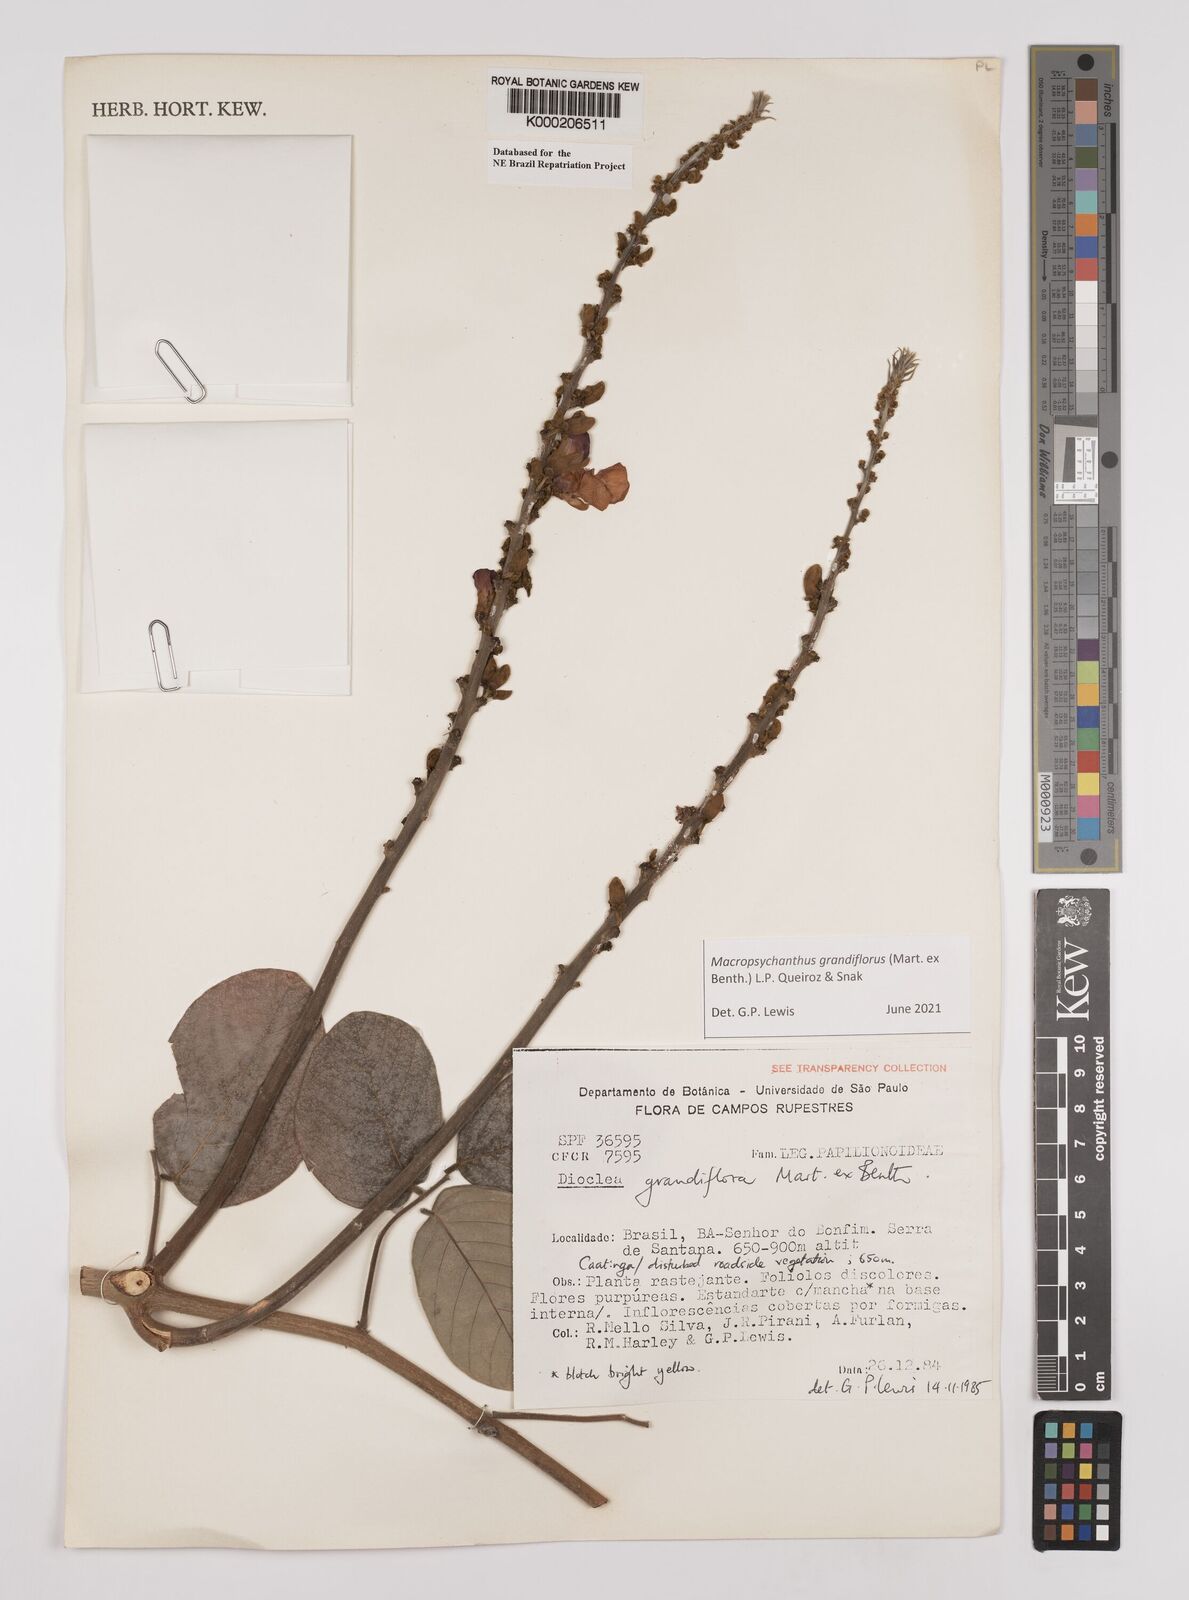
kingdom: Plantae
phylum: Tracheophyta
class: Magnoliopsida
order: Fabales
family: Fabaceae
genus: Macropsychanthus
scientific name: Macropsychanthus grandiflorus
